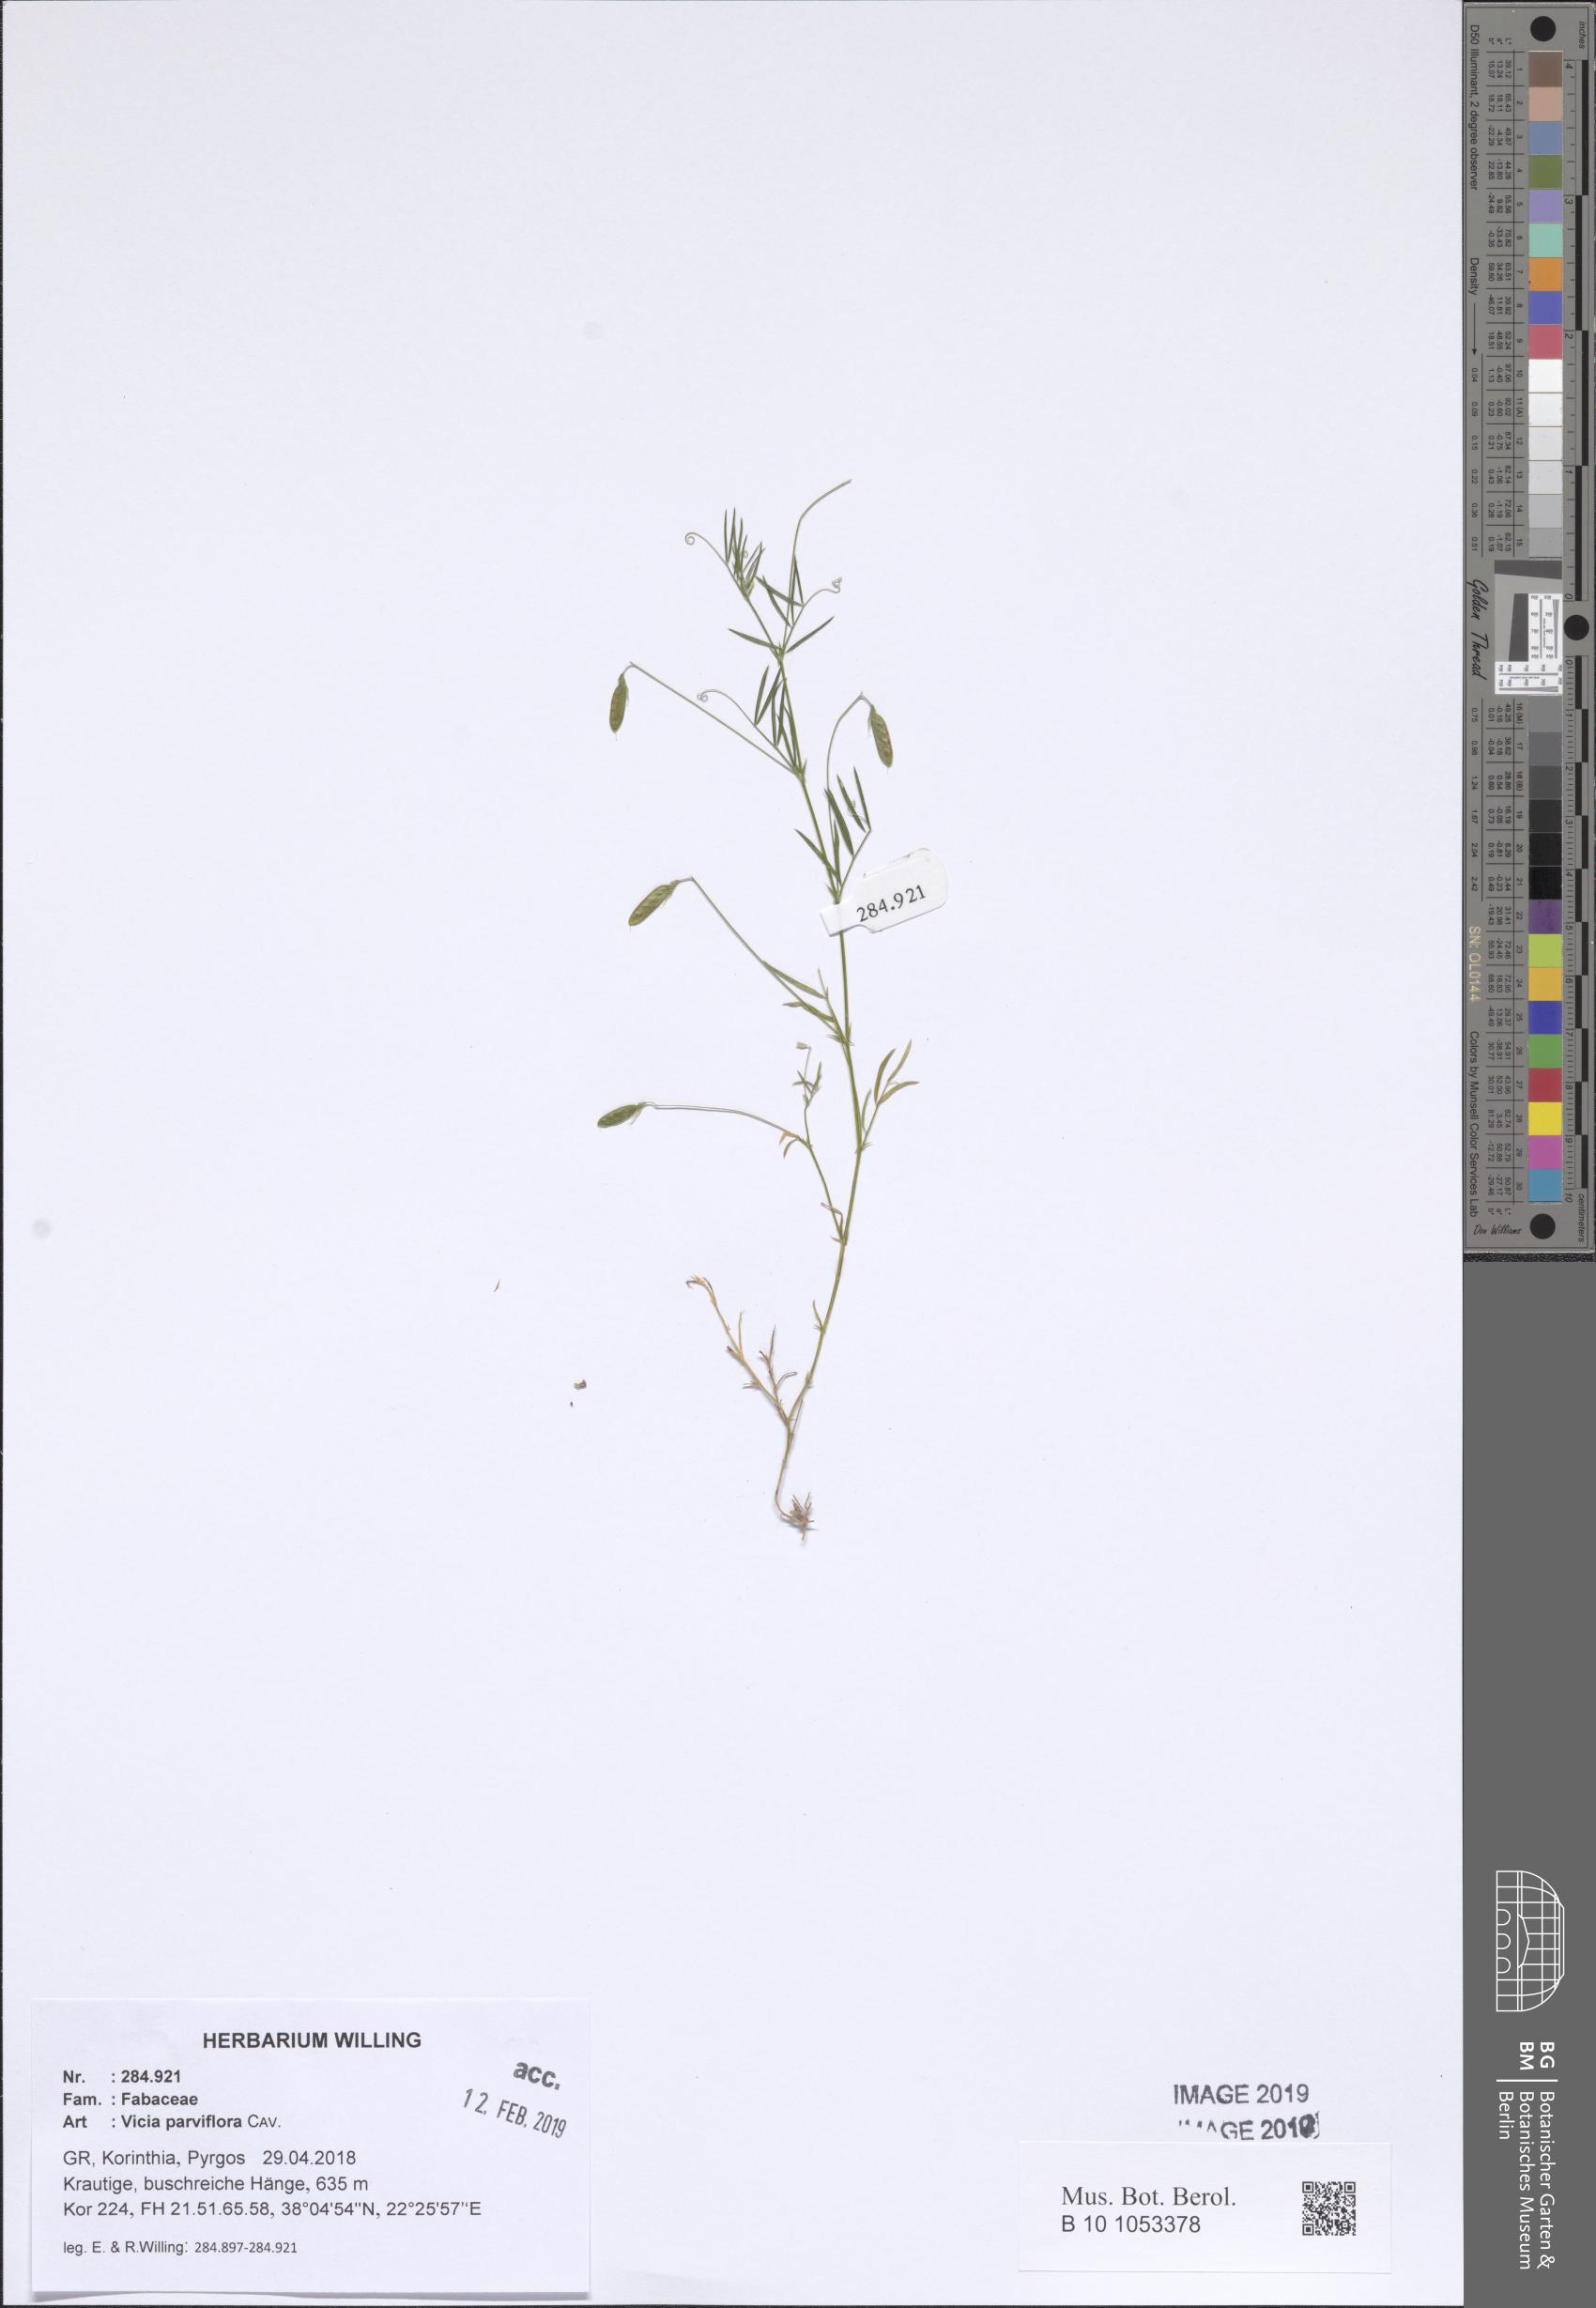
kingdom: Plantae
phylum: Tracheophyta
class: Magnoliopsida
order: Fabales
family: Fabaceae
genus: Vicia
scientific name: Vicia parviflora
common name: Slender tare
